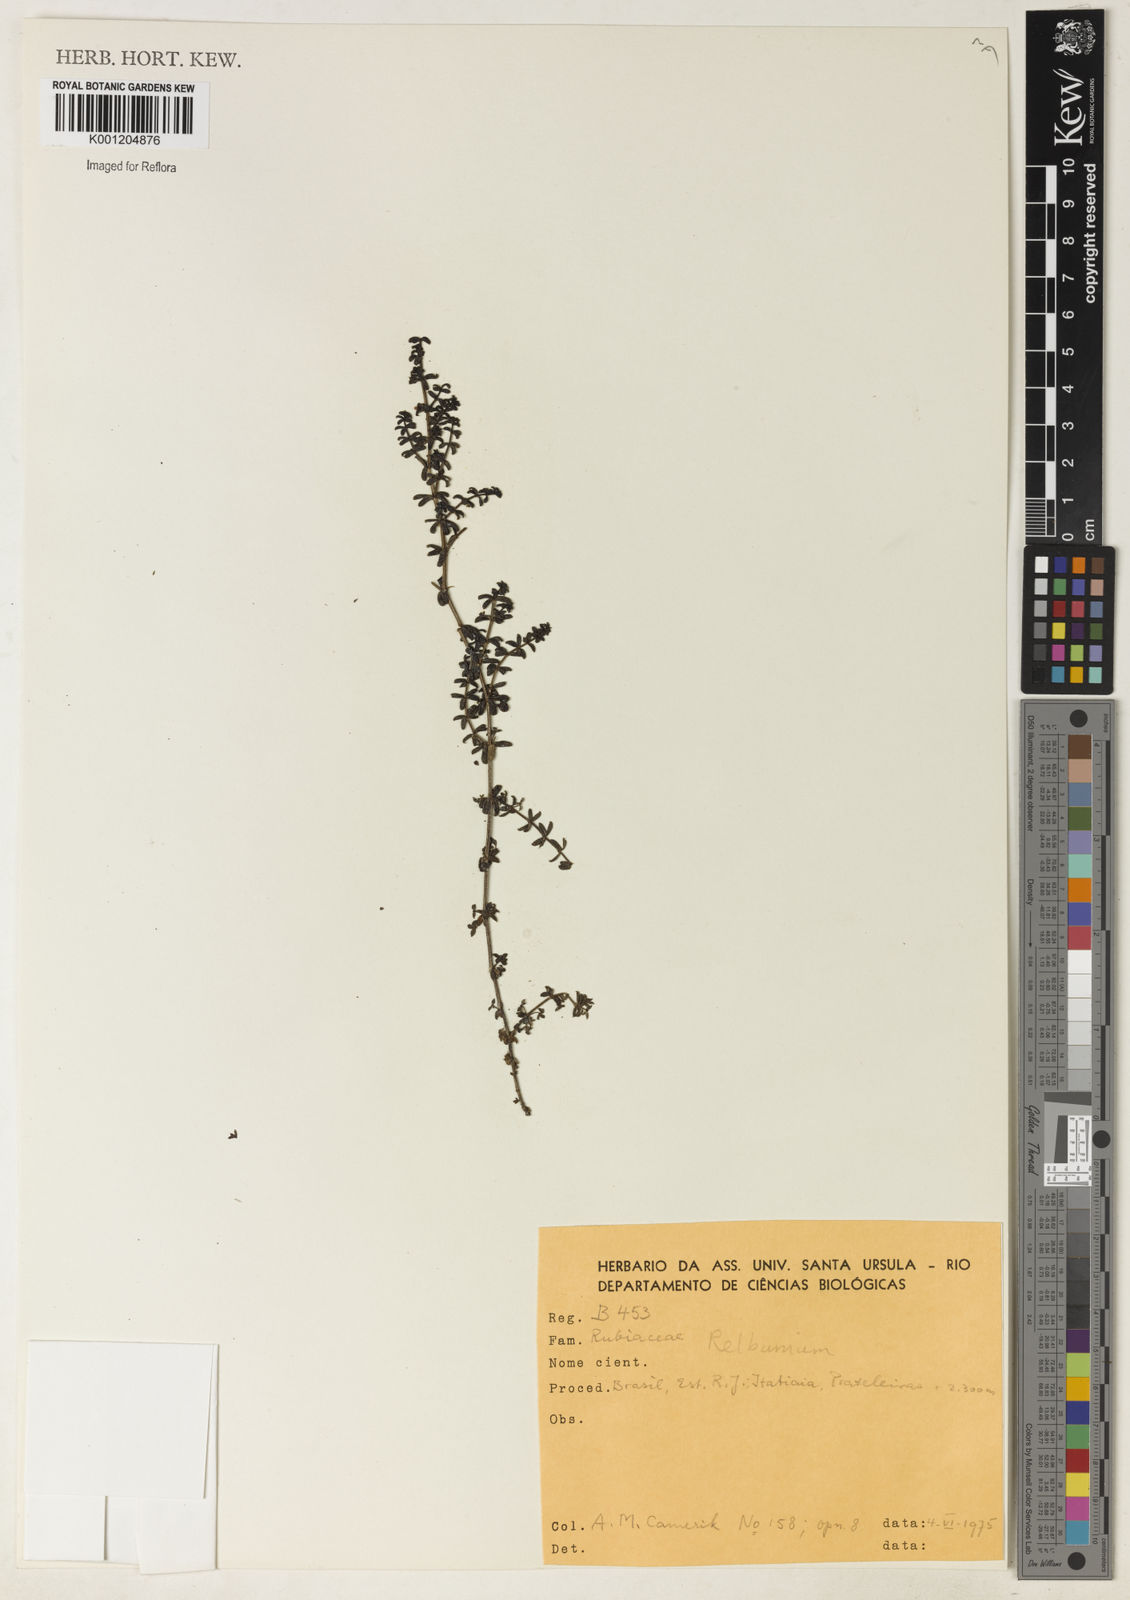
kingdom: Plantae
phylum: Tracheophyta
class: Magnoliopsida
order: Gentianales
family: Rubiaceae
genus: Galium
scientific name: Galium
